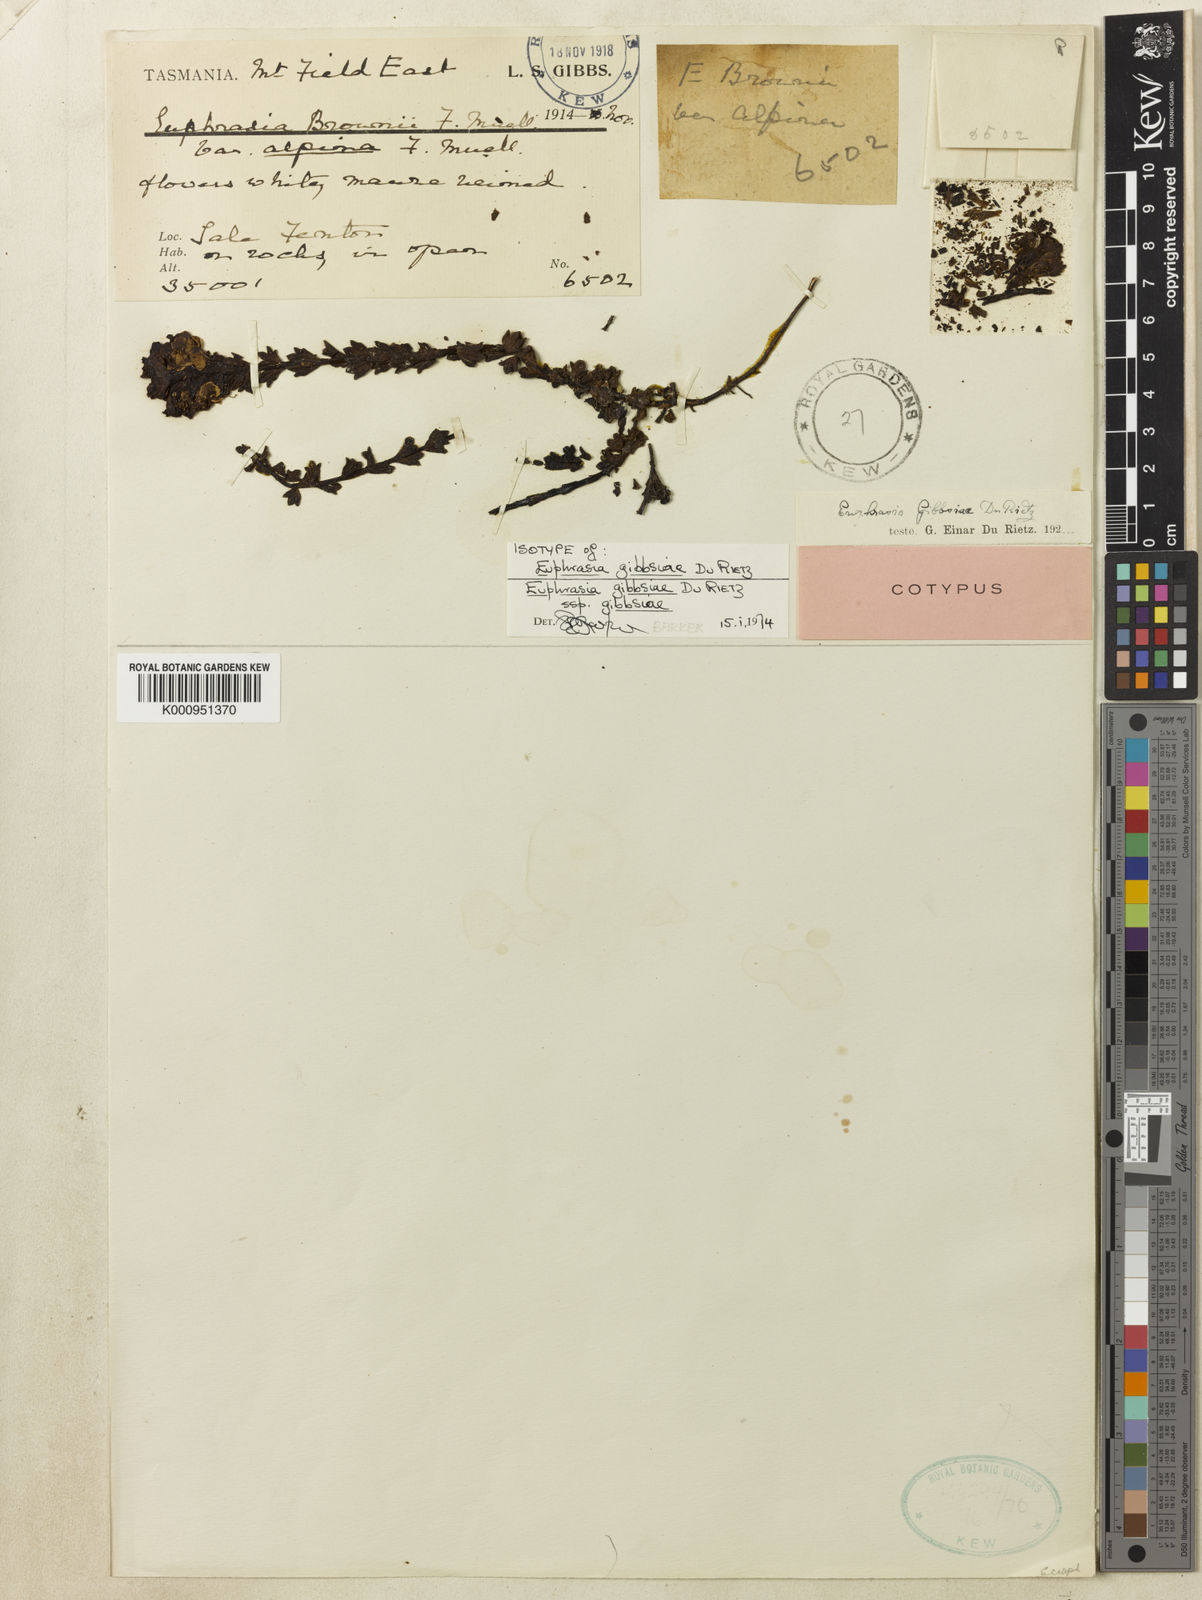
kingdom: Plantae
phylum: Tracheophyta
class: Magnoliopsida
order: Lamiales
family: Orobanchaceae
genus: Euphrasia
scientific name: Euphrasia gibbsiae
